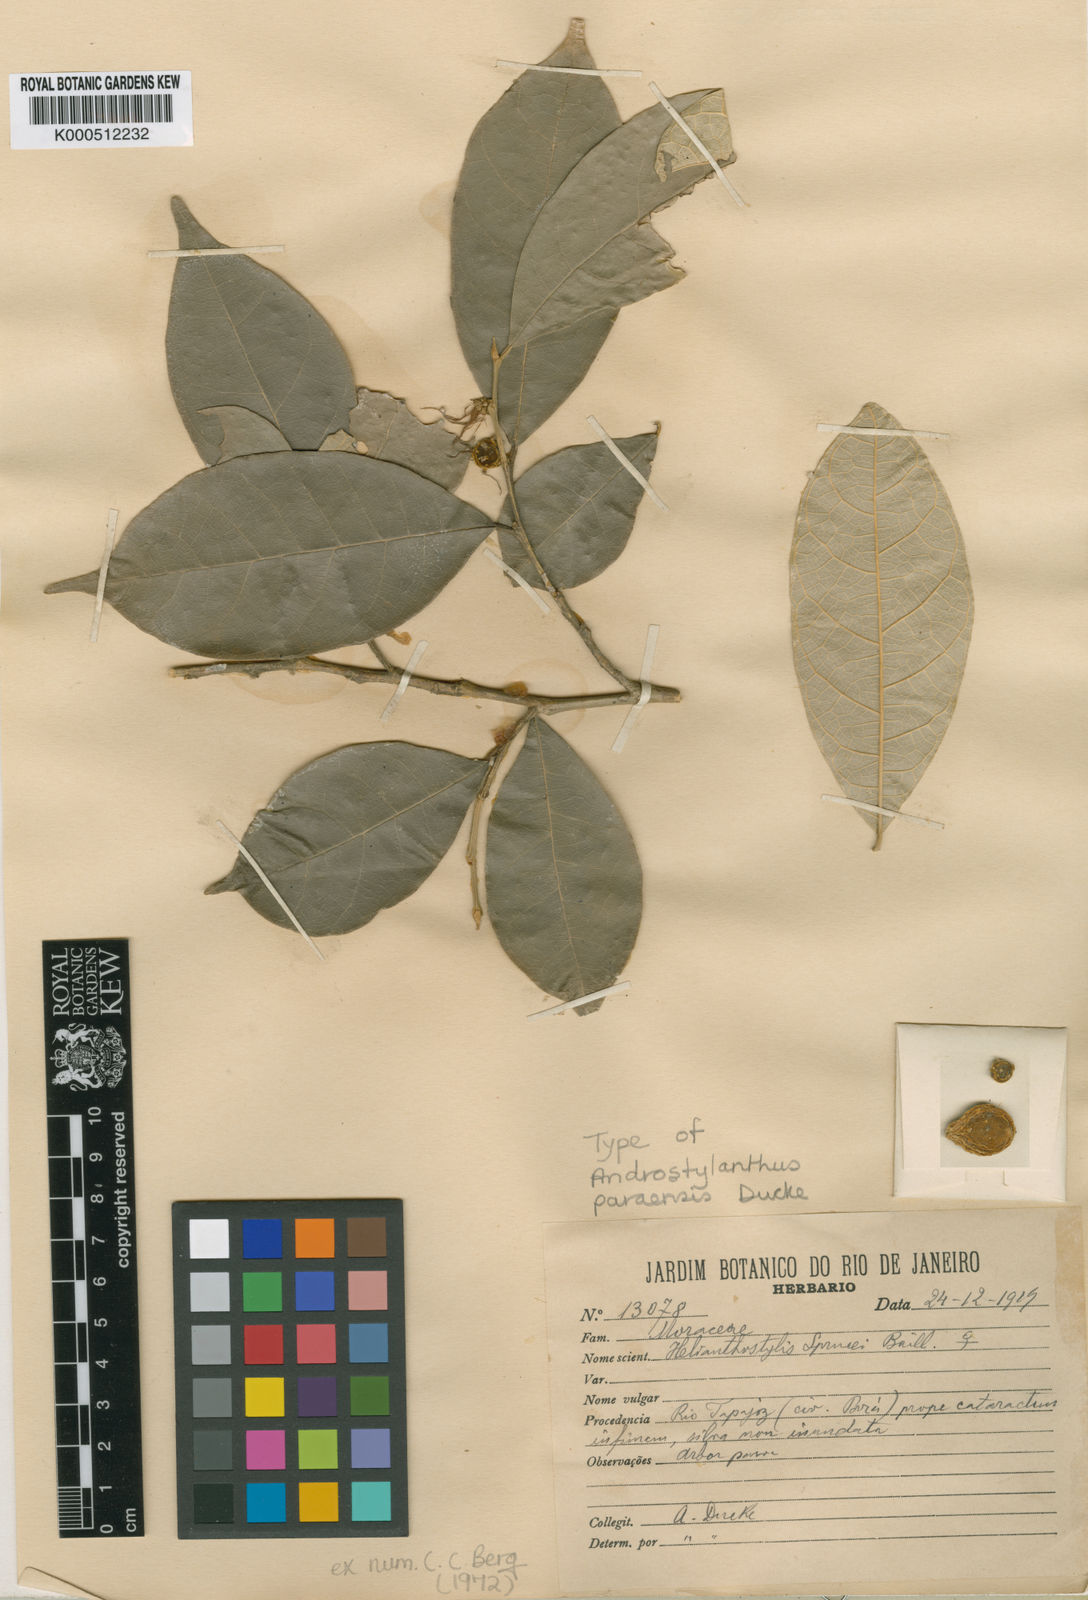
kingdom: Plantae
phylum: Tracheophyta
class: Magnoliopsida
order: Rosales
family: Moraceae
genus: Brosimum
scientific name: Brosimum sprucei
